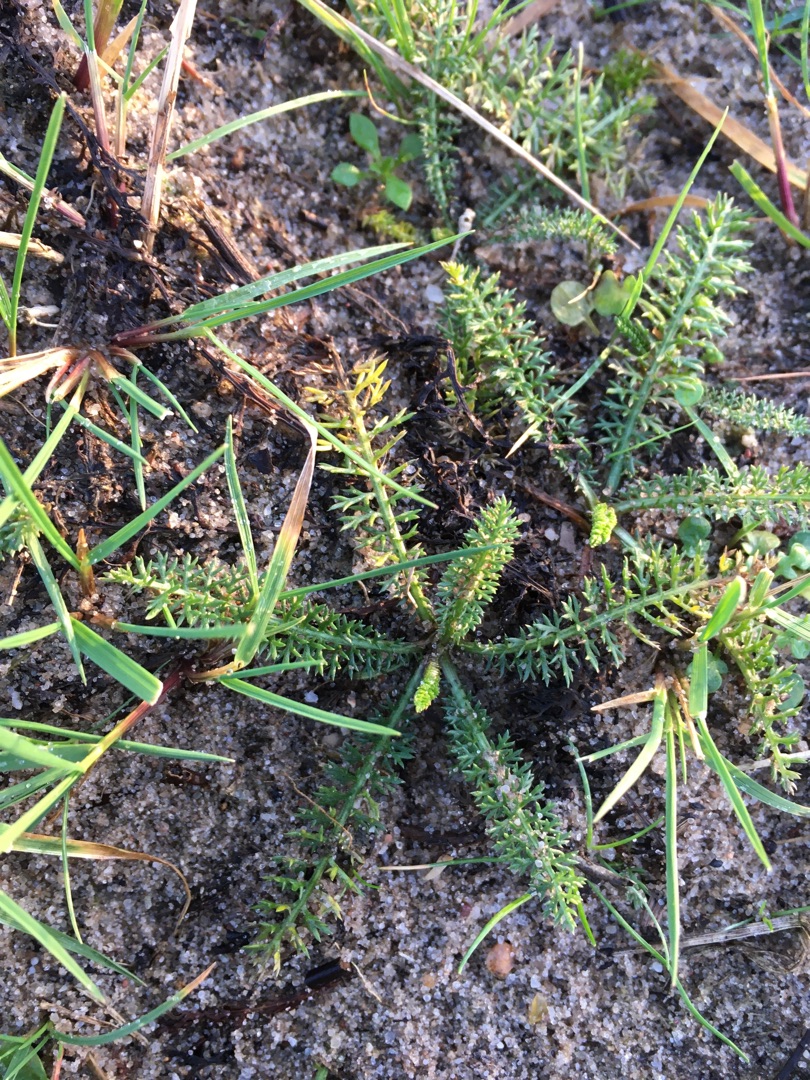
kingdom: Plantae
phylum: Tracheophyta
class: Magnoliopsida
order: Asterales
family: Asteraceae
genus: Achillea
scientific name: Achillea millefolium
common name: Almindelig røllike
